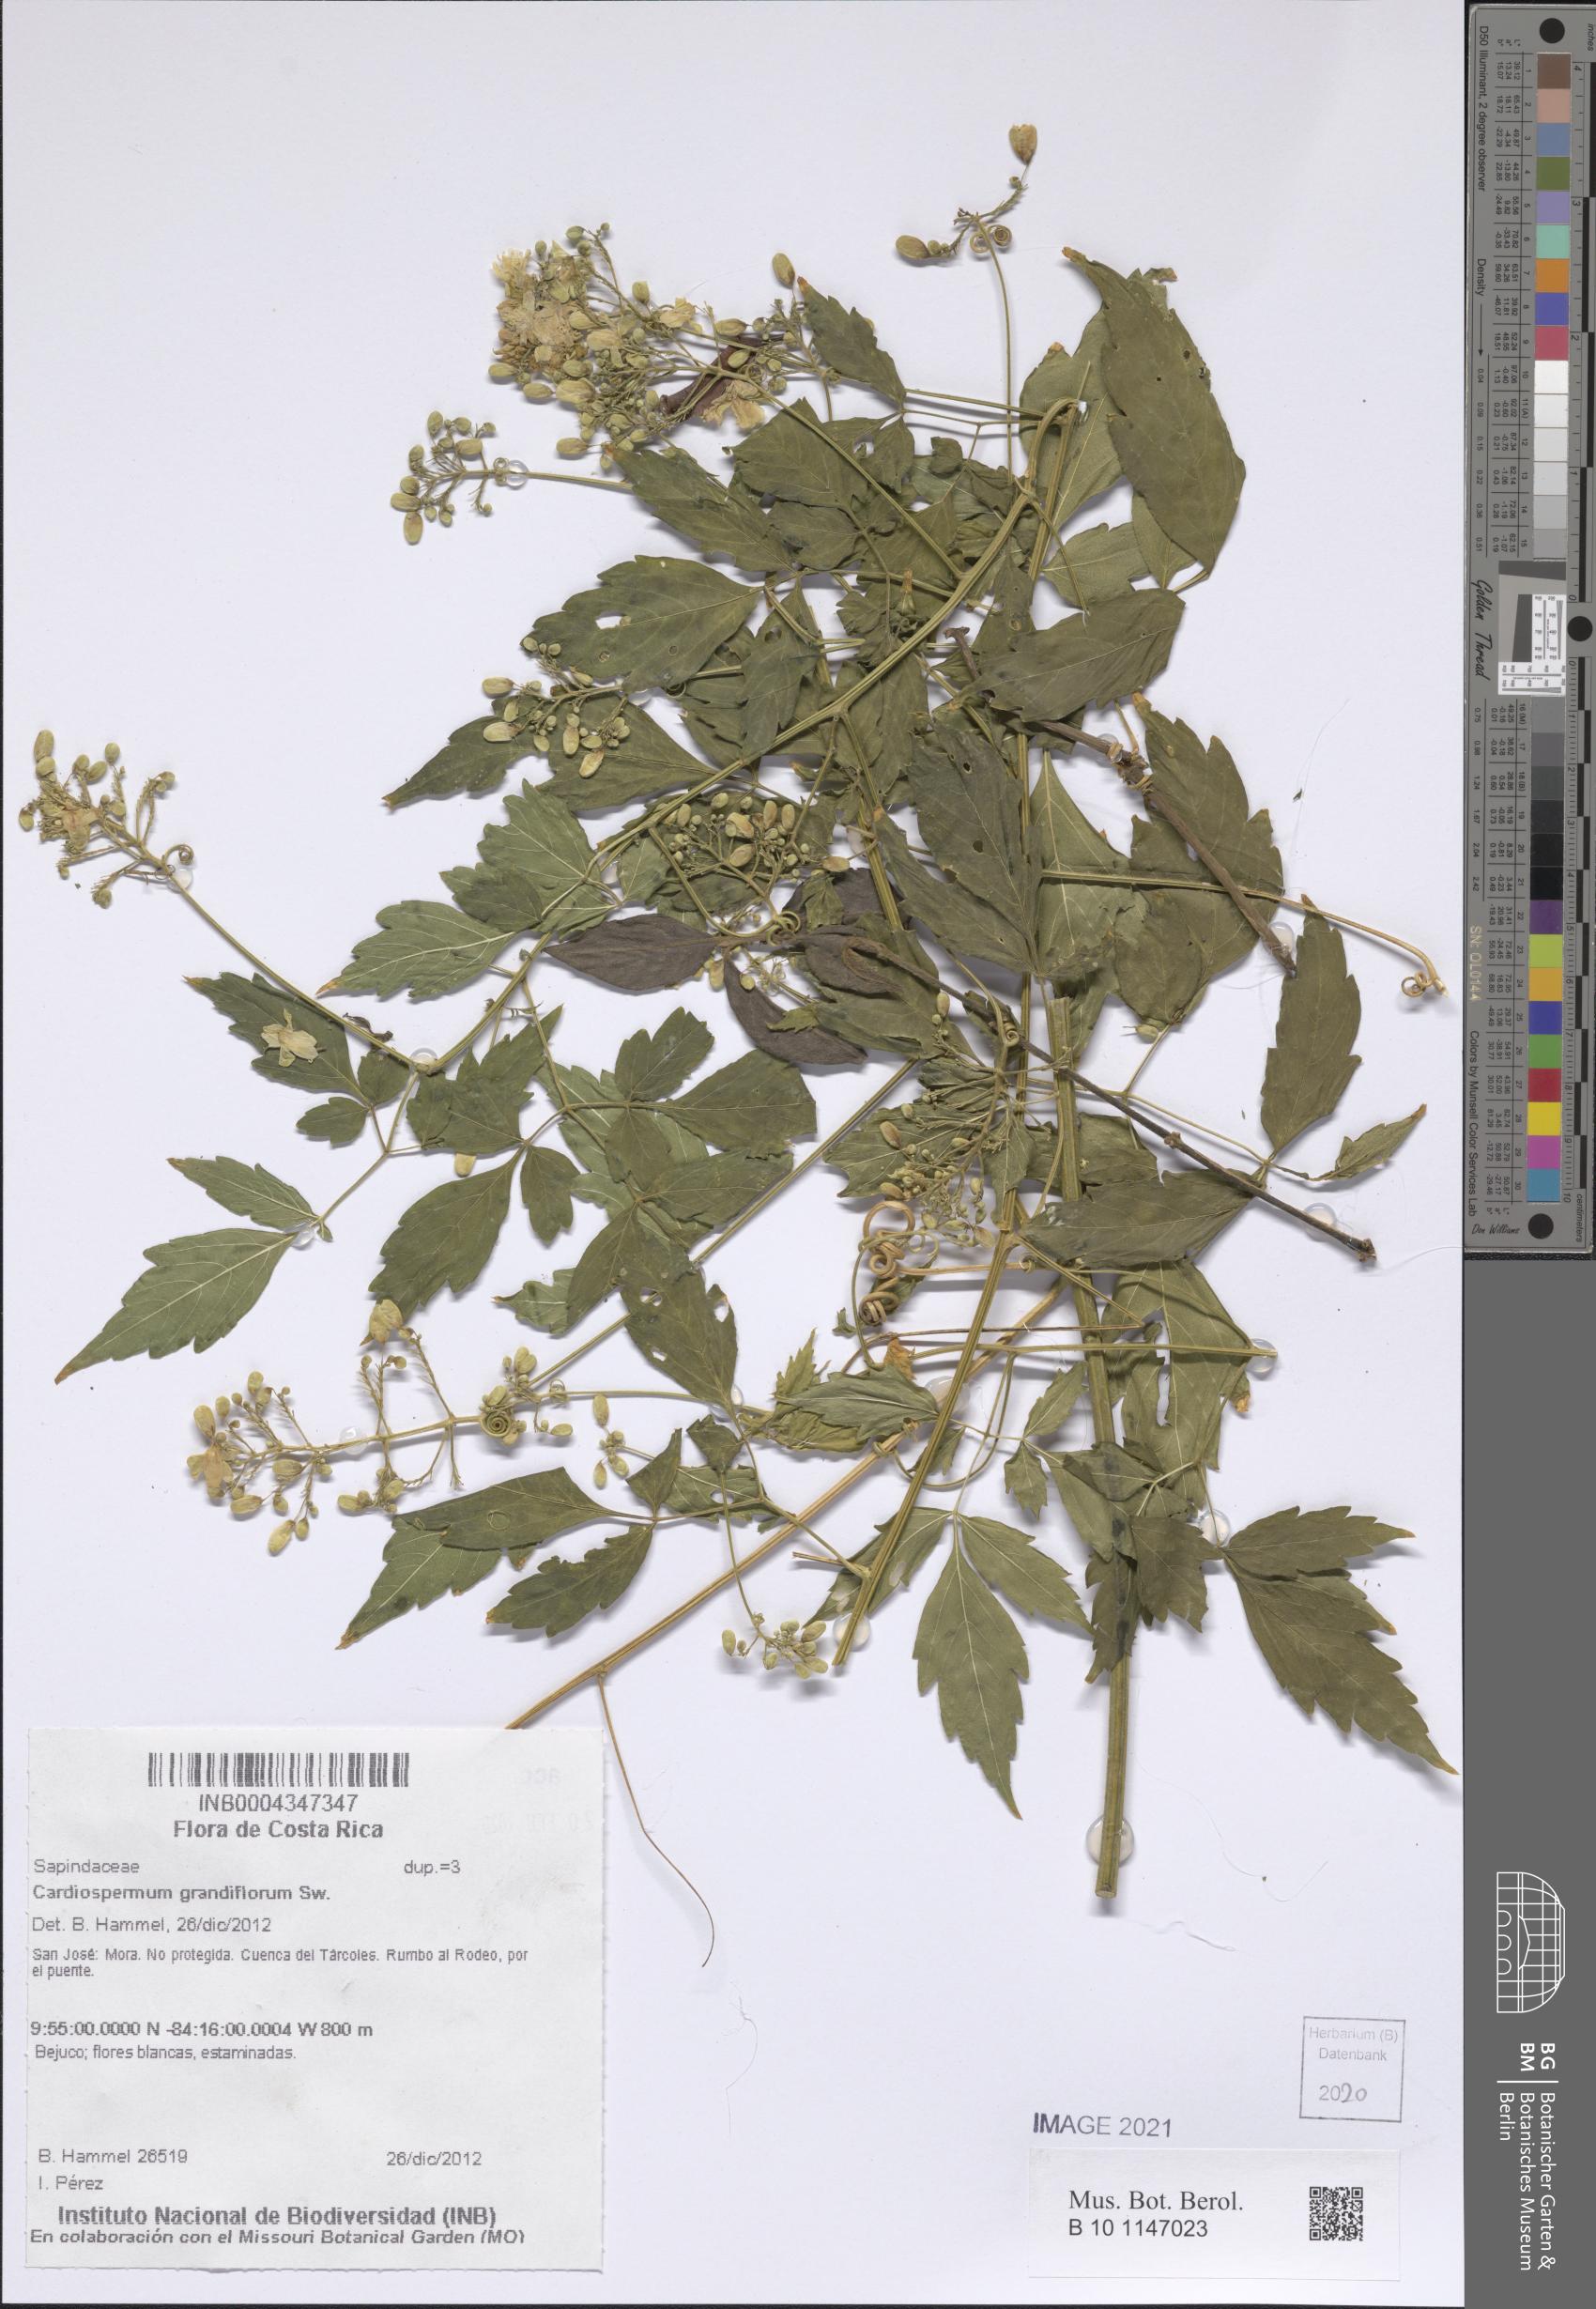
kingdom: Plantae
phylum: Tracheophyta
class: Magnoliopsida
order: Sapindales
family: Sapindaceae
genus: Cardiospermum
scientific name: Cardiospermum grandiflorum
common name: Balloon vine
